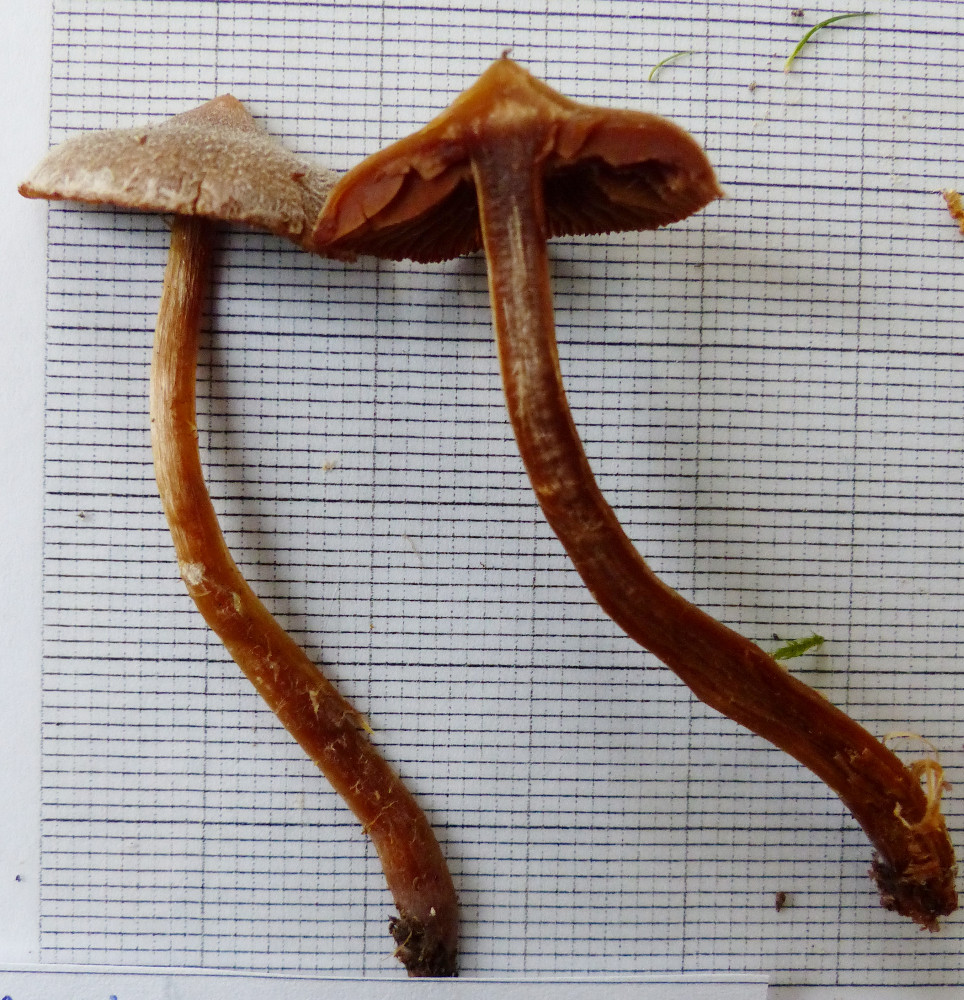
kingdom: Fungi
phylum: Basidiomycota
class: Agaricomycetes
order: Agaricales
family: Cortinariaceae
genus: Cortinarius
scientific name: Cortinarius
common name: pelargonie-slørhat
